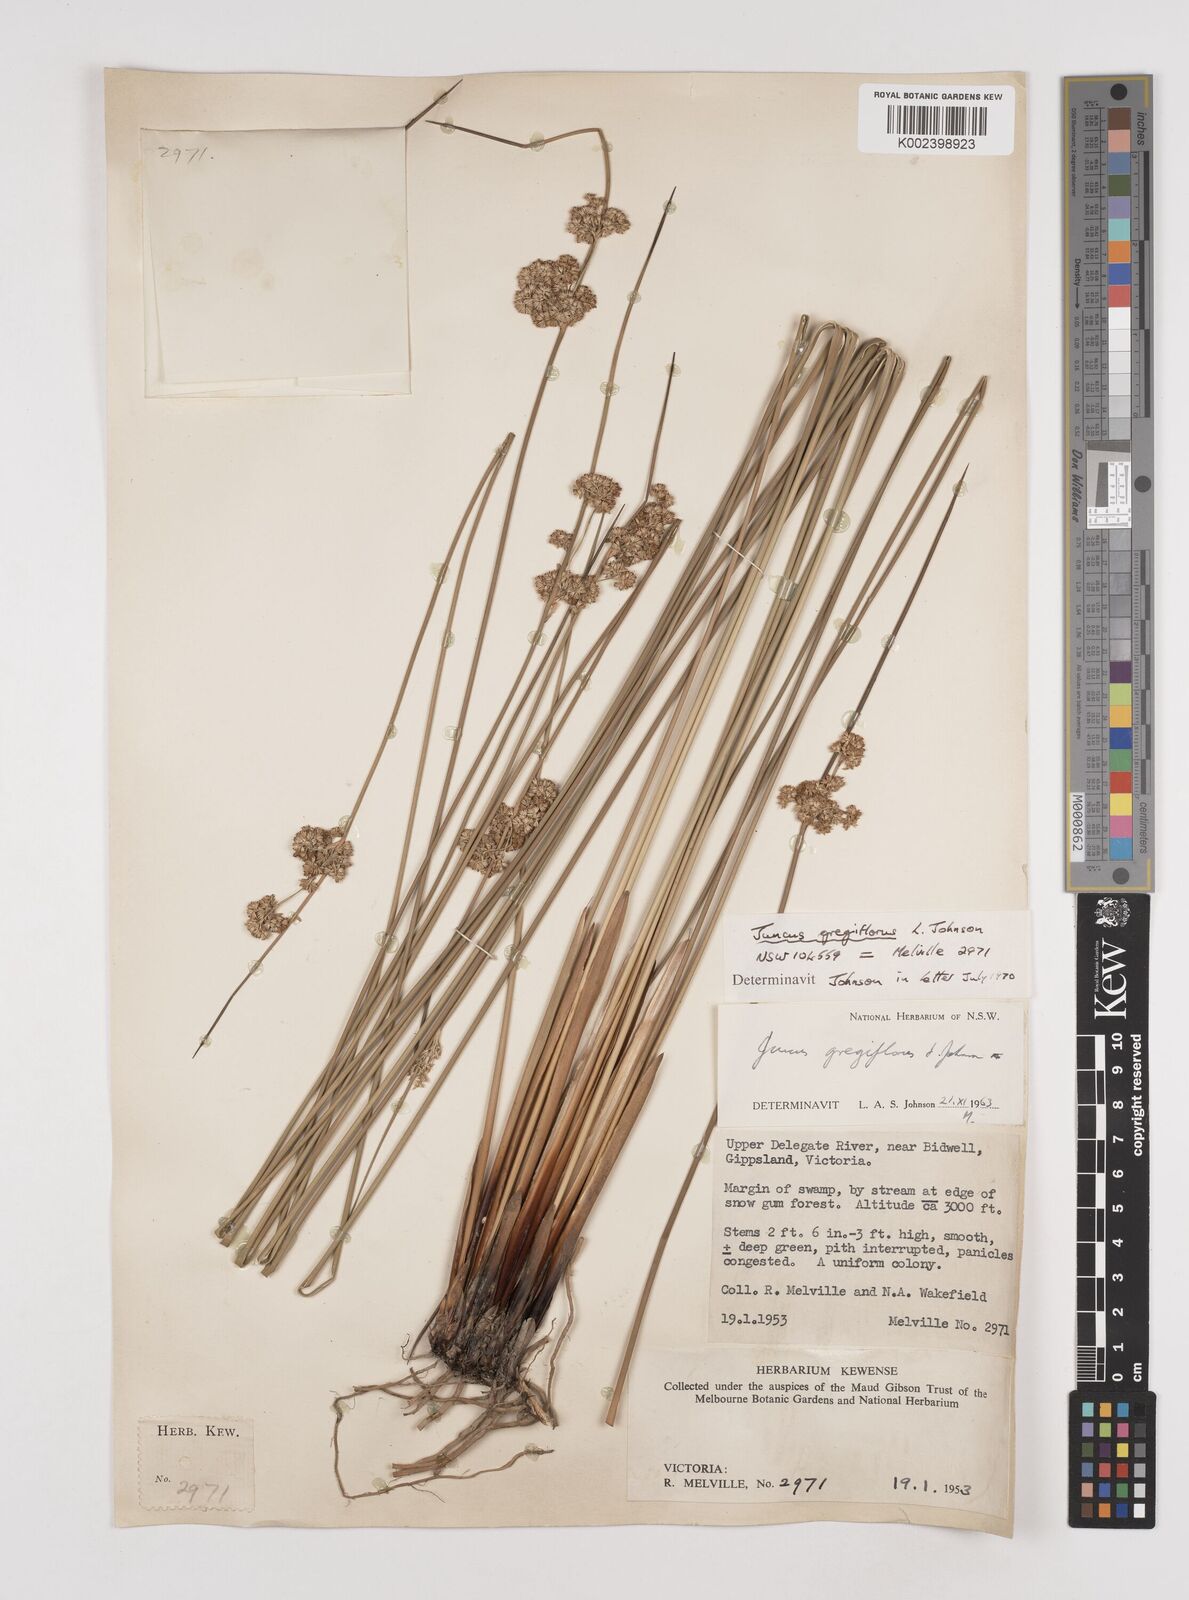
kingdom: Plantae
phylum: Tracheophyta
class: Liliopsida
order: Poales
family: Juncaceae
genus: Juncus
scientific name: Juncus gregiflorus
